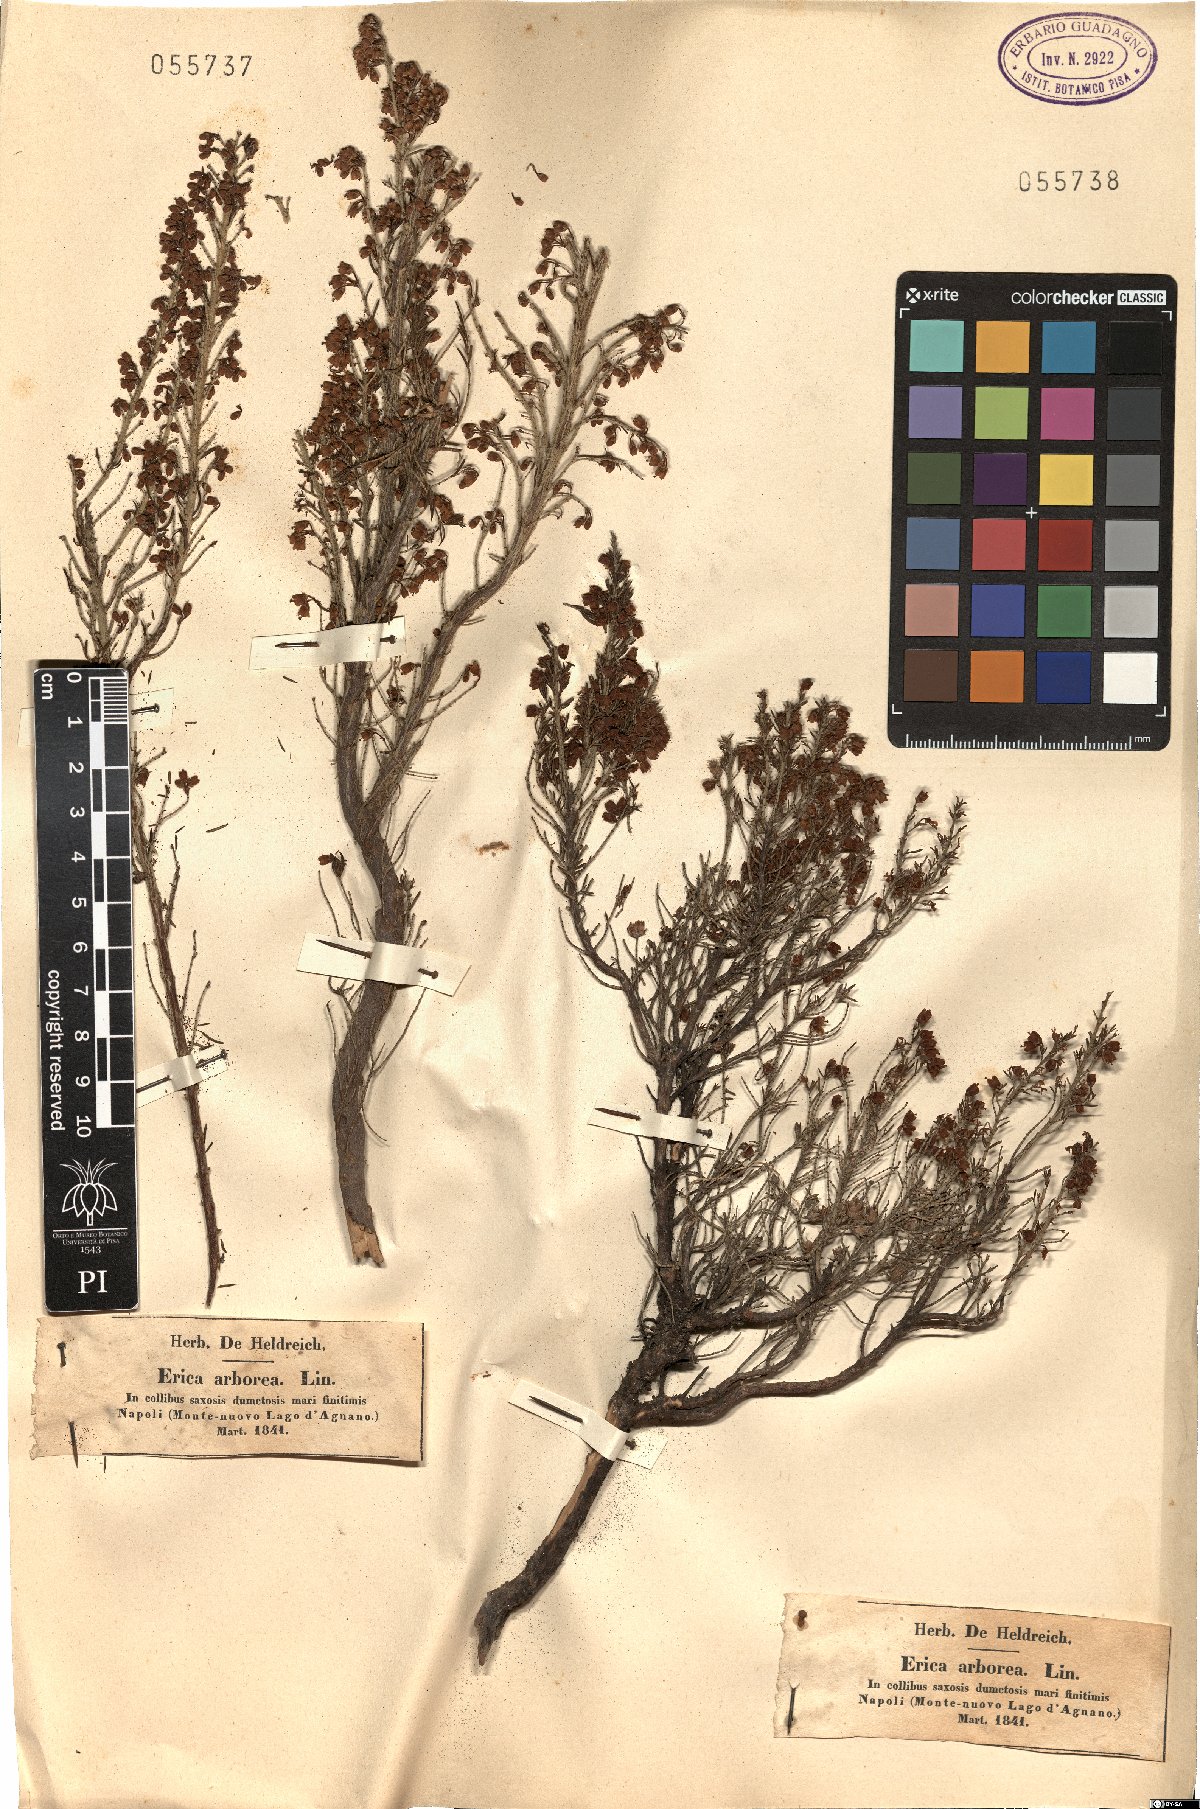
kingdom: Plantae
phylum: Tracheophyta
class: Magnoliopsida
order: Ericales
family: Ericaceae
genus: Erica
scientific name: Erica arborea
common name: Tree heath
